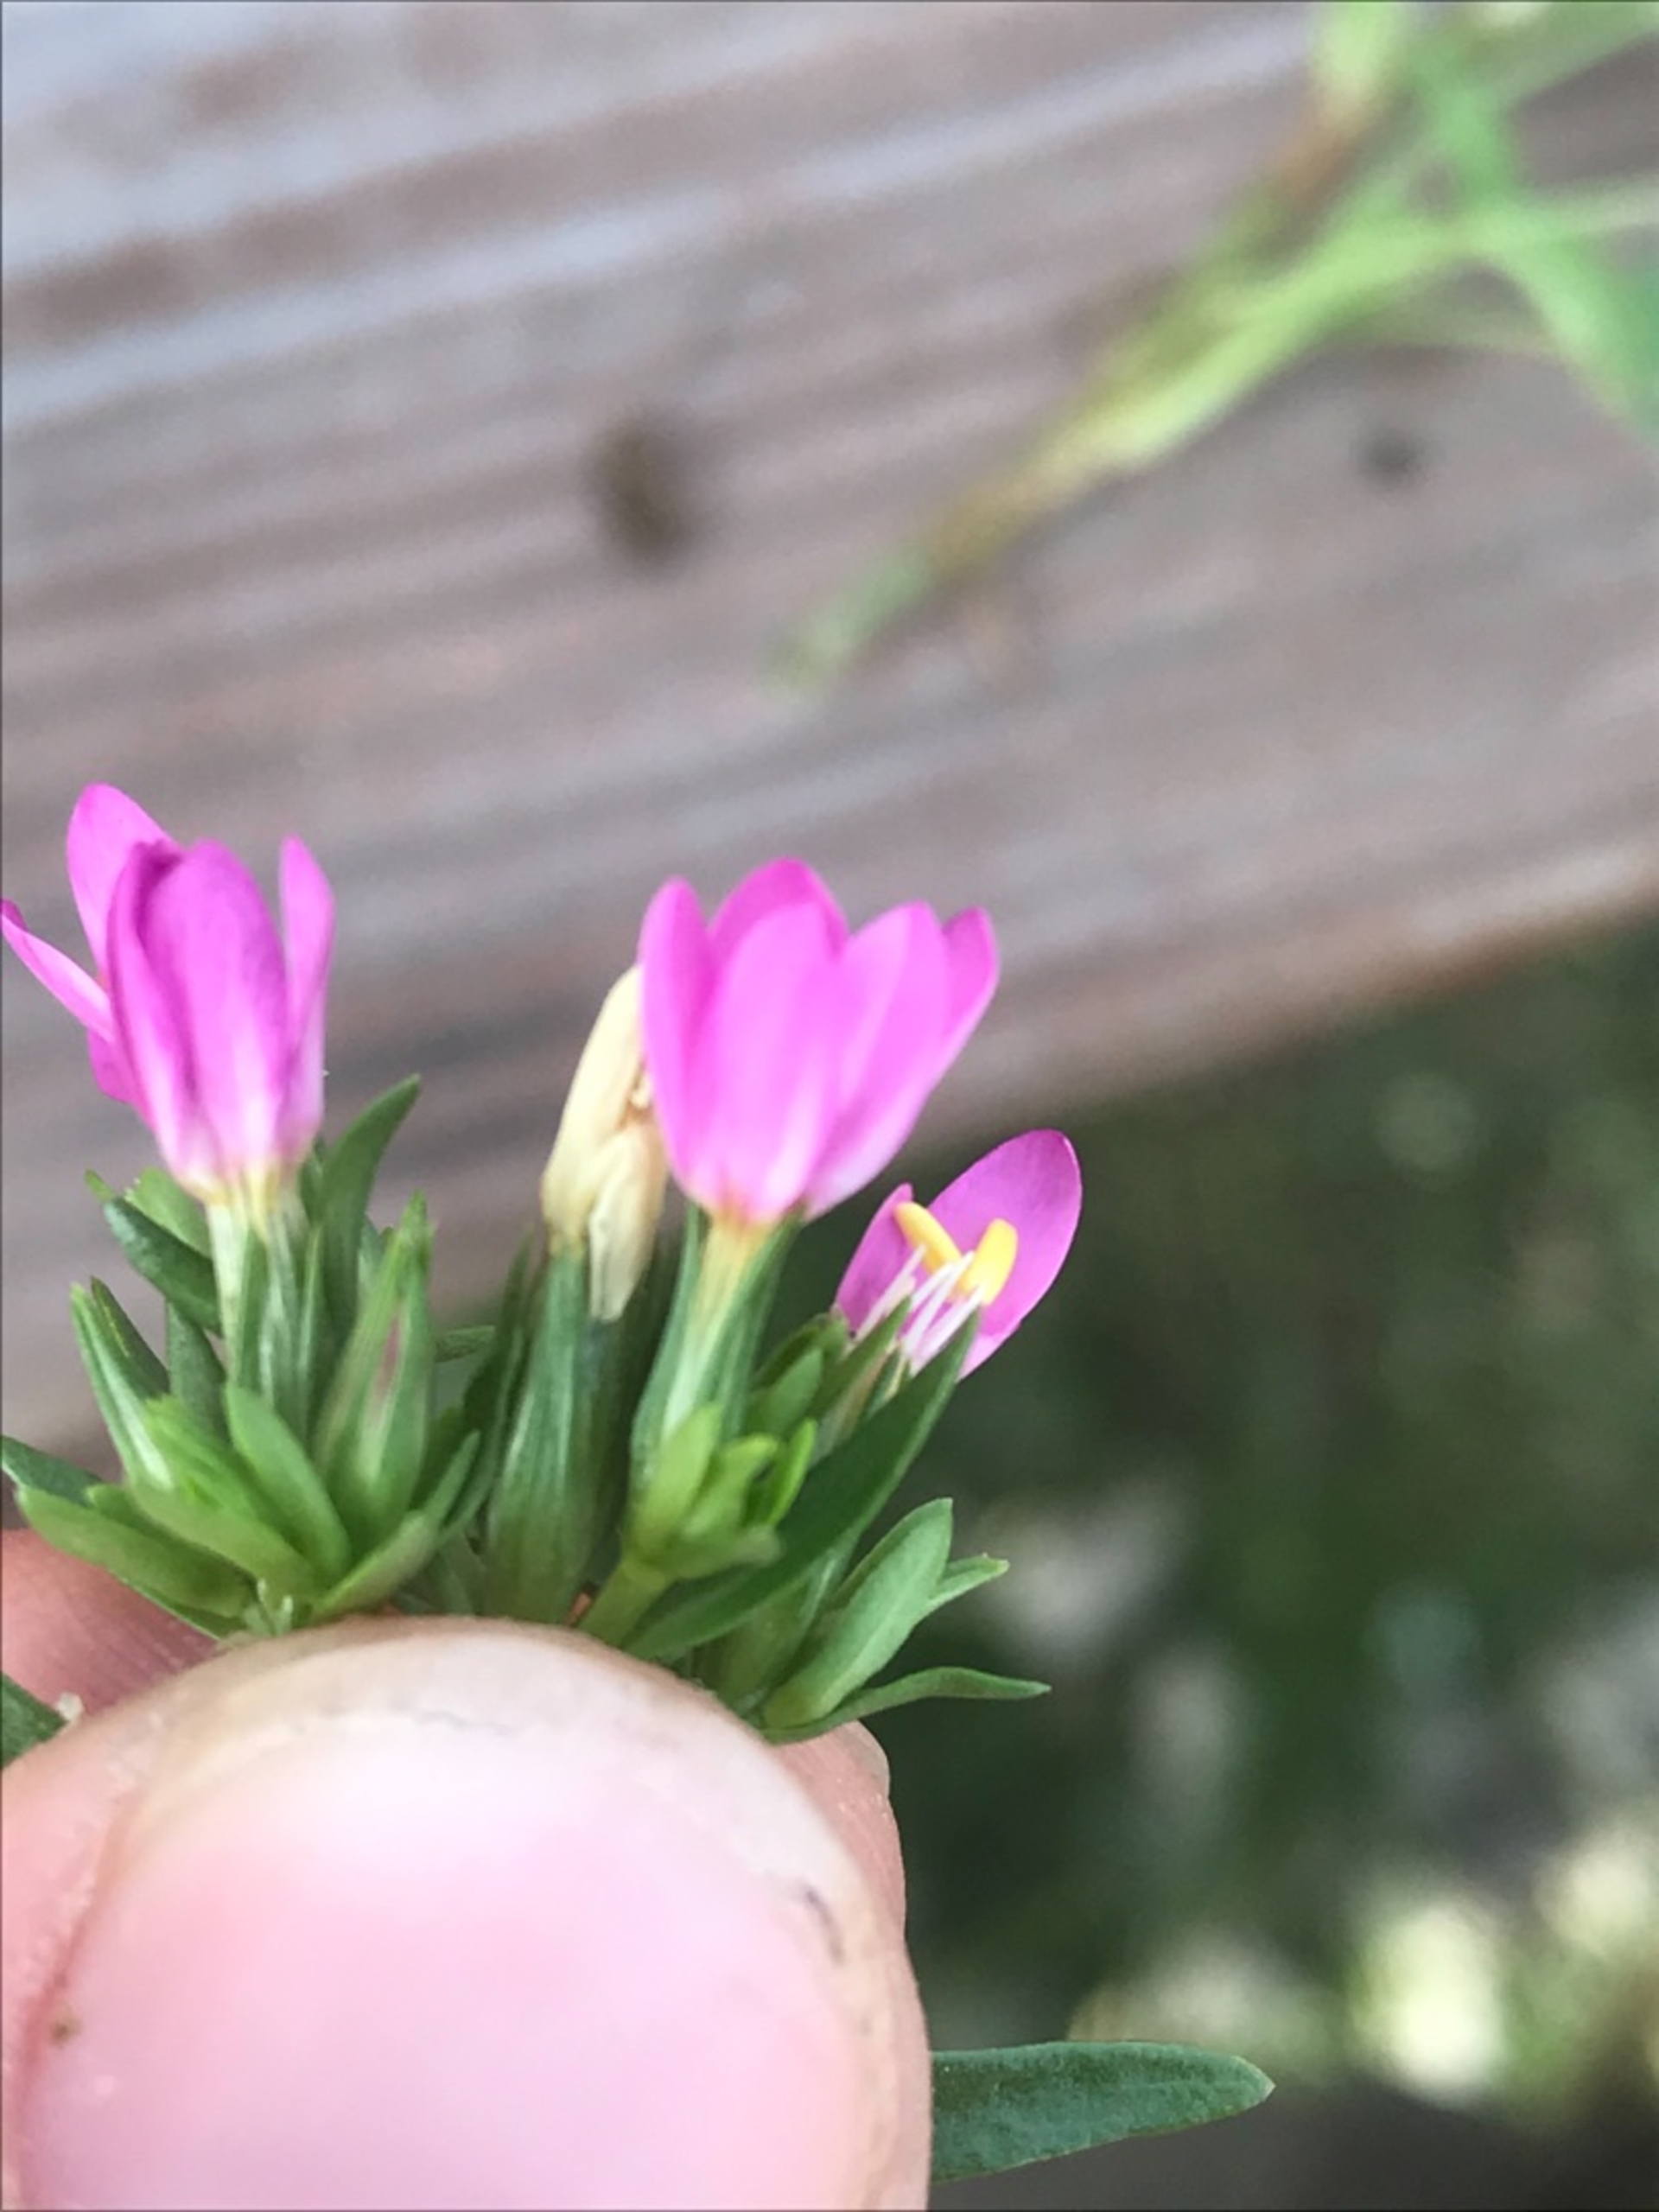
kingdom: Plantae
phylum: Tracheophyta
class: Magnoliopsida
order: Gentianales
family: Gentianaceae
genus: Centaurium
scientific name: Centaurium littorale
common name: Strand-tusindgylden
